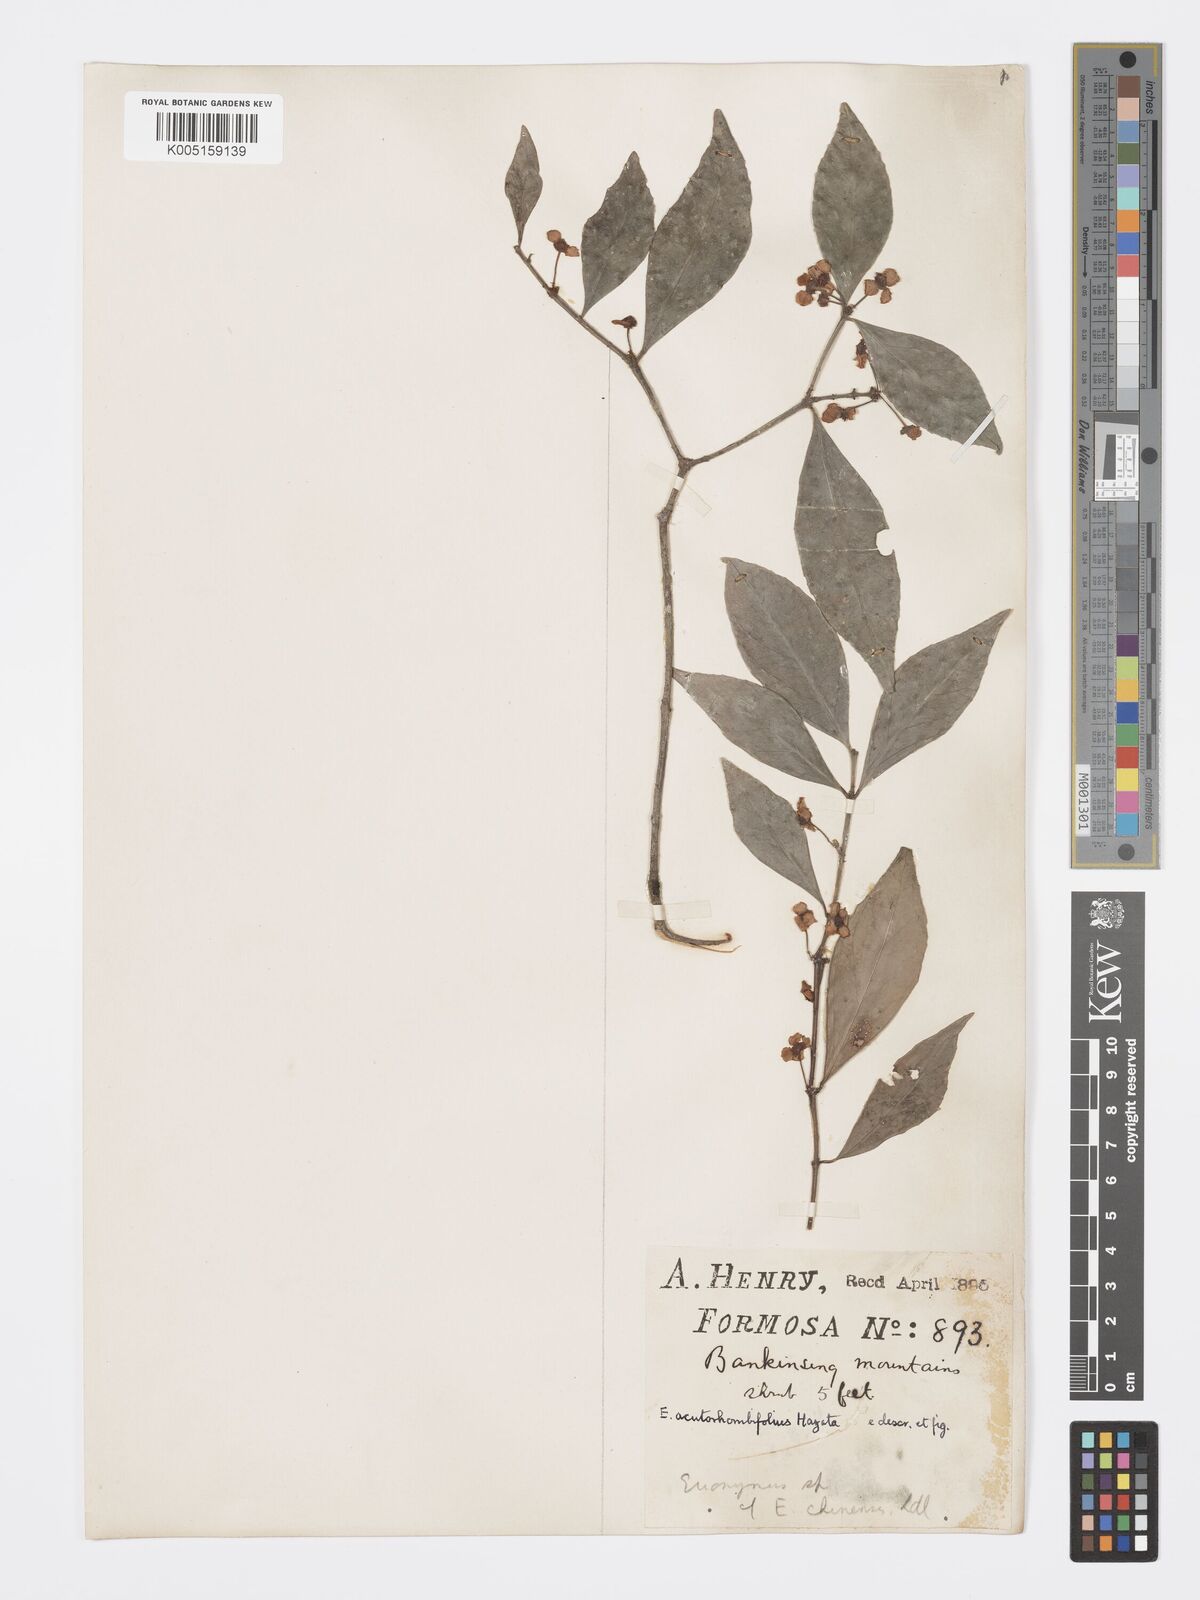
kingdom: Plantae
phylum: Tracheophyta
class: Magnoliopsida
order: Celastrales
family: Celastraceae
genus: Euonymus
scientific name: Euonymus tashiroi
